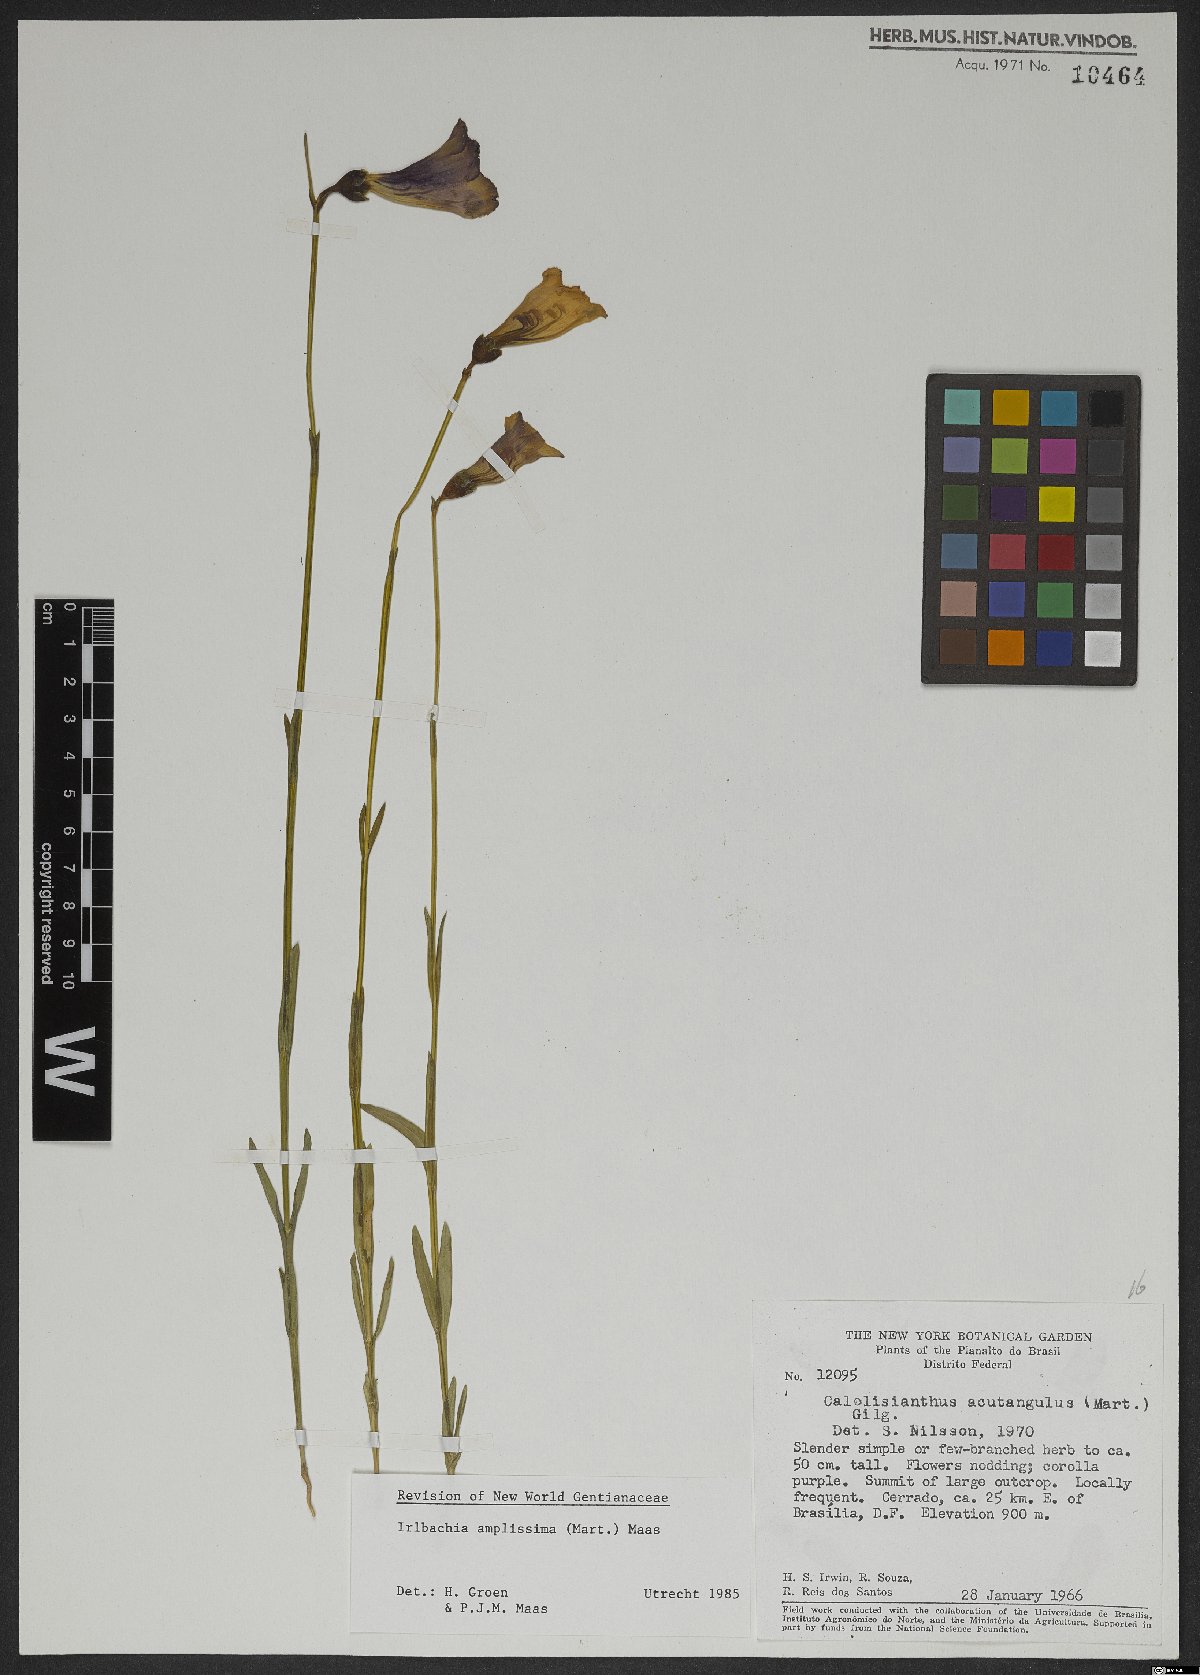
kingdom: Plantae
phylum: Tracheophyta
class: Magnoliopsida
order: Gentianales
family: Gentianaceae
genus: Calolisianthus
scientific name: Calolisianthus amplissimus
